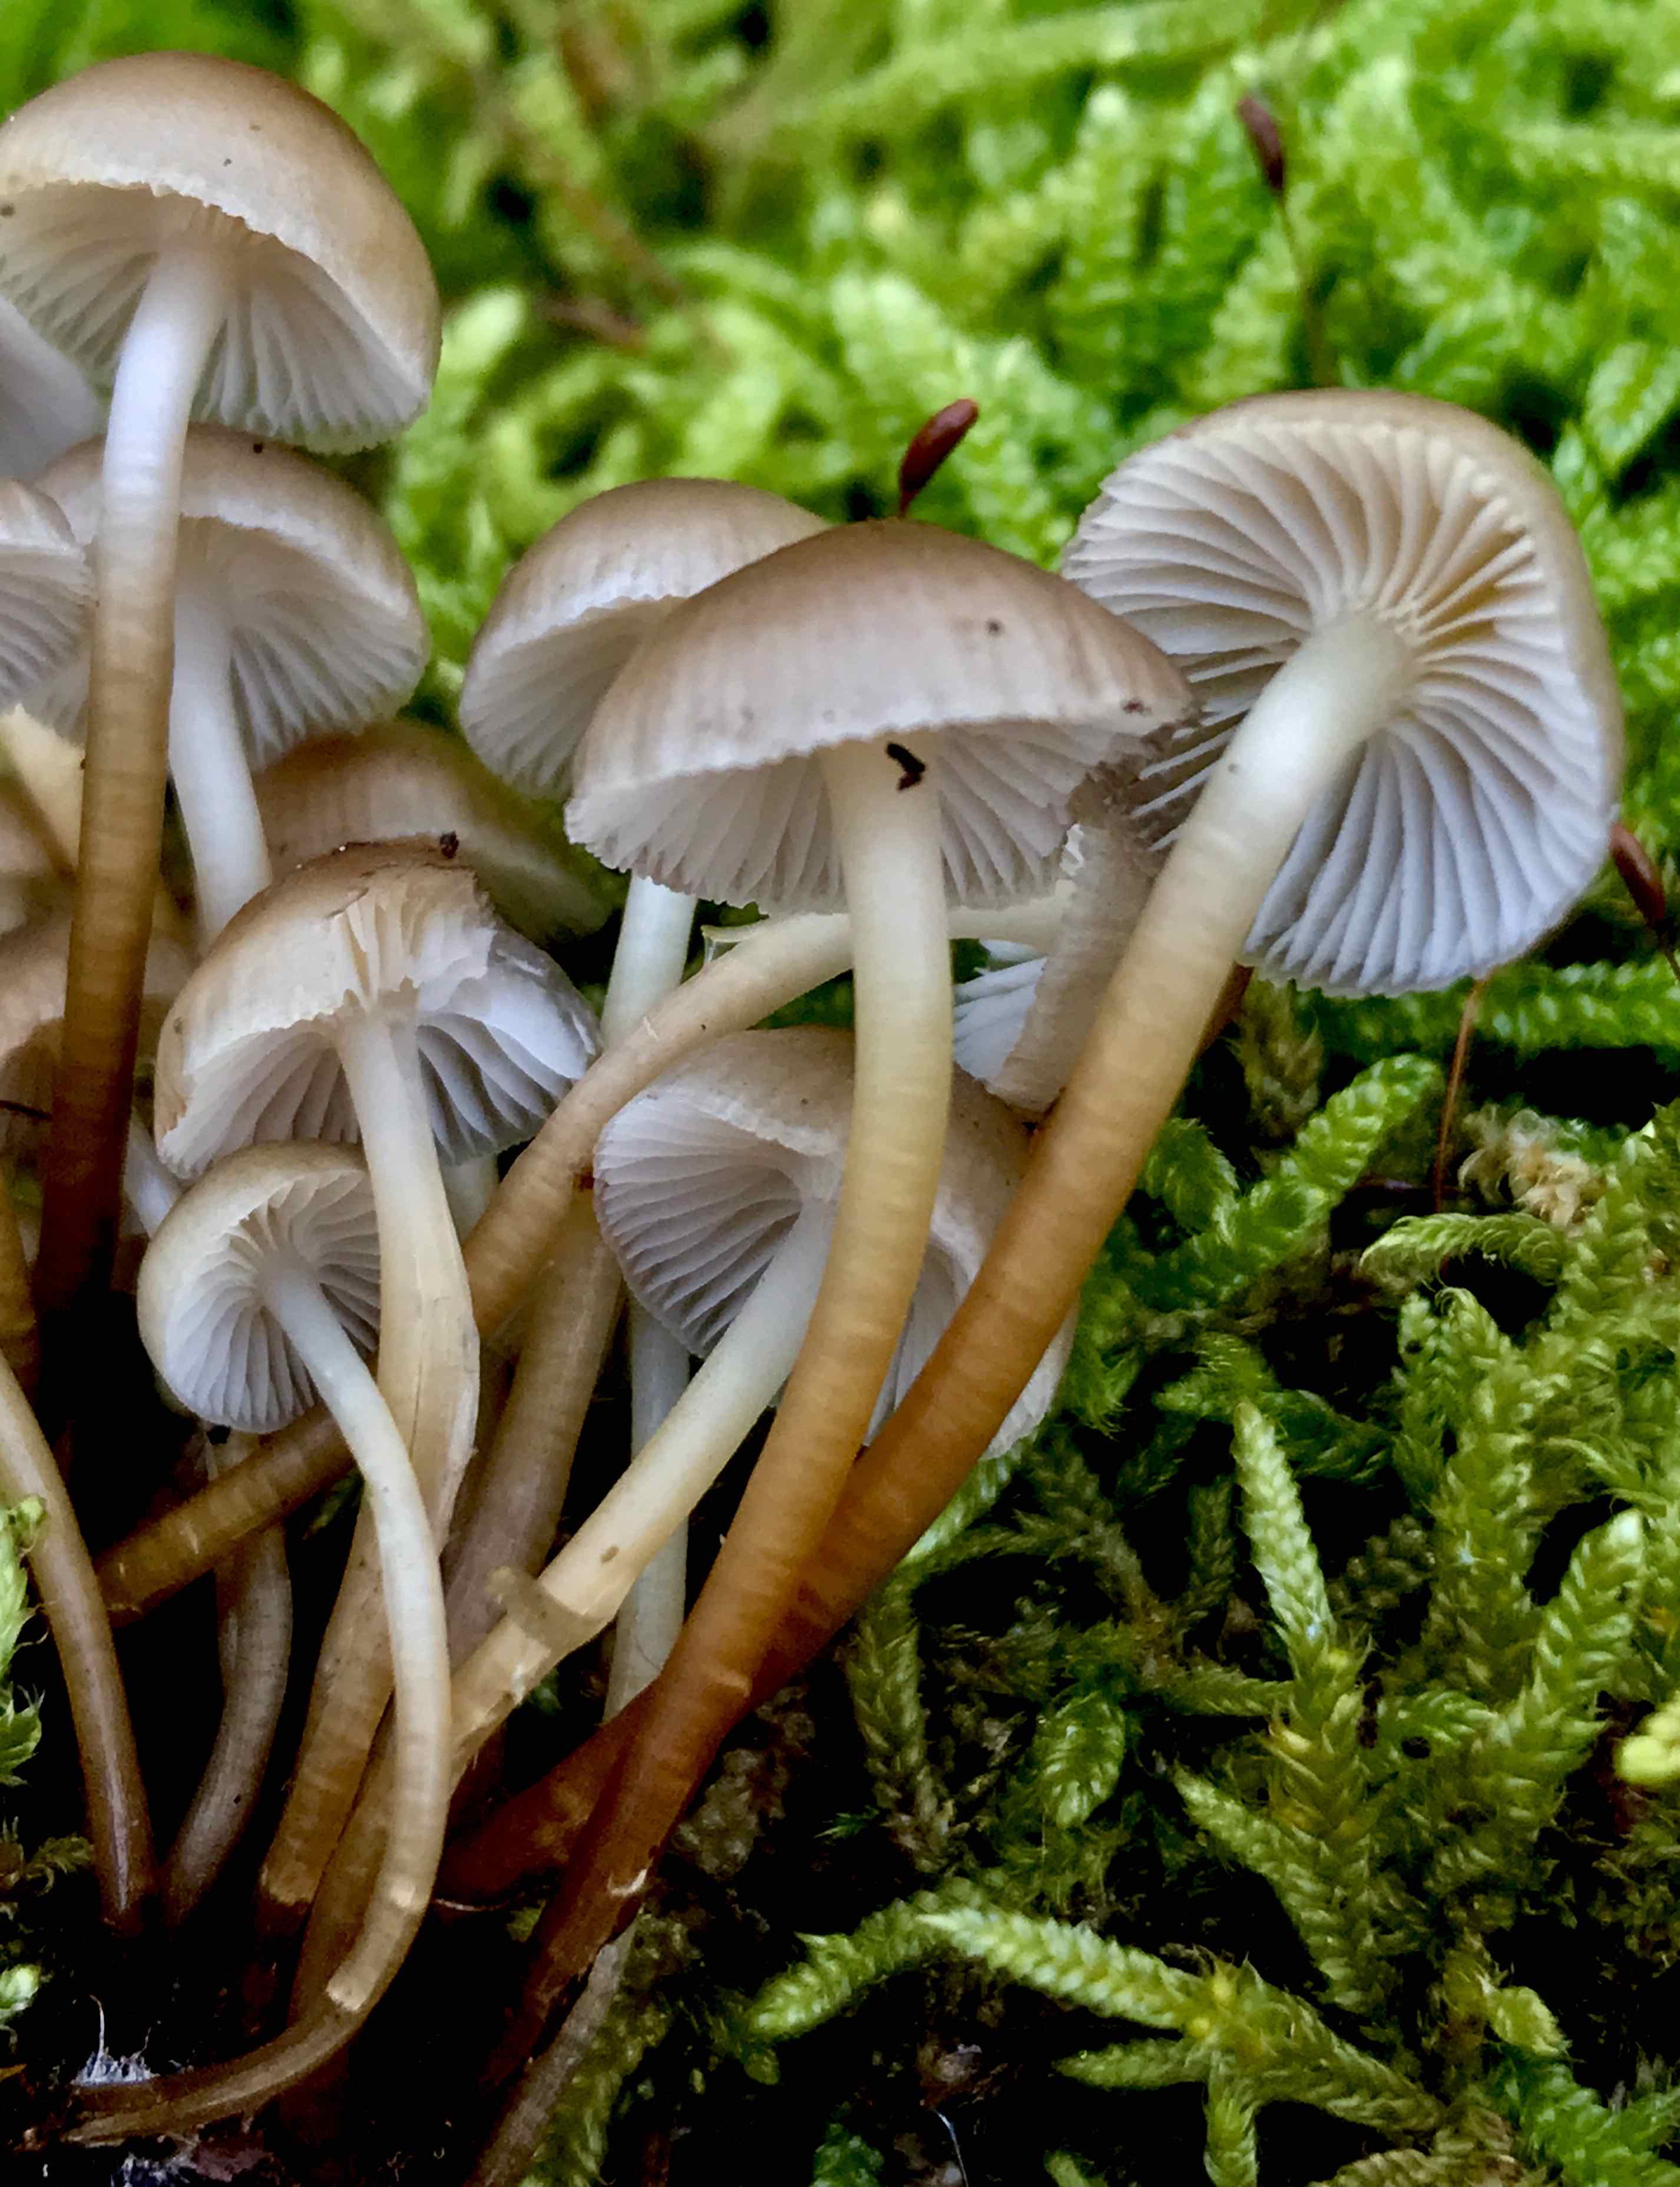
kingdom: Fungi
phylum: Basidiomycota
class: Agaricomycetes
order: Agaricales
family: Mycenaceae
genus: Mycena
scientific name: Mycena
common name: huesvamp
